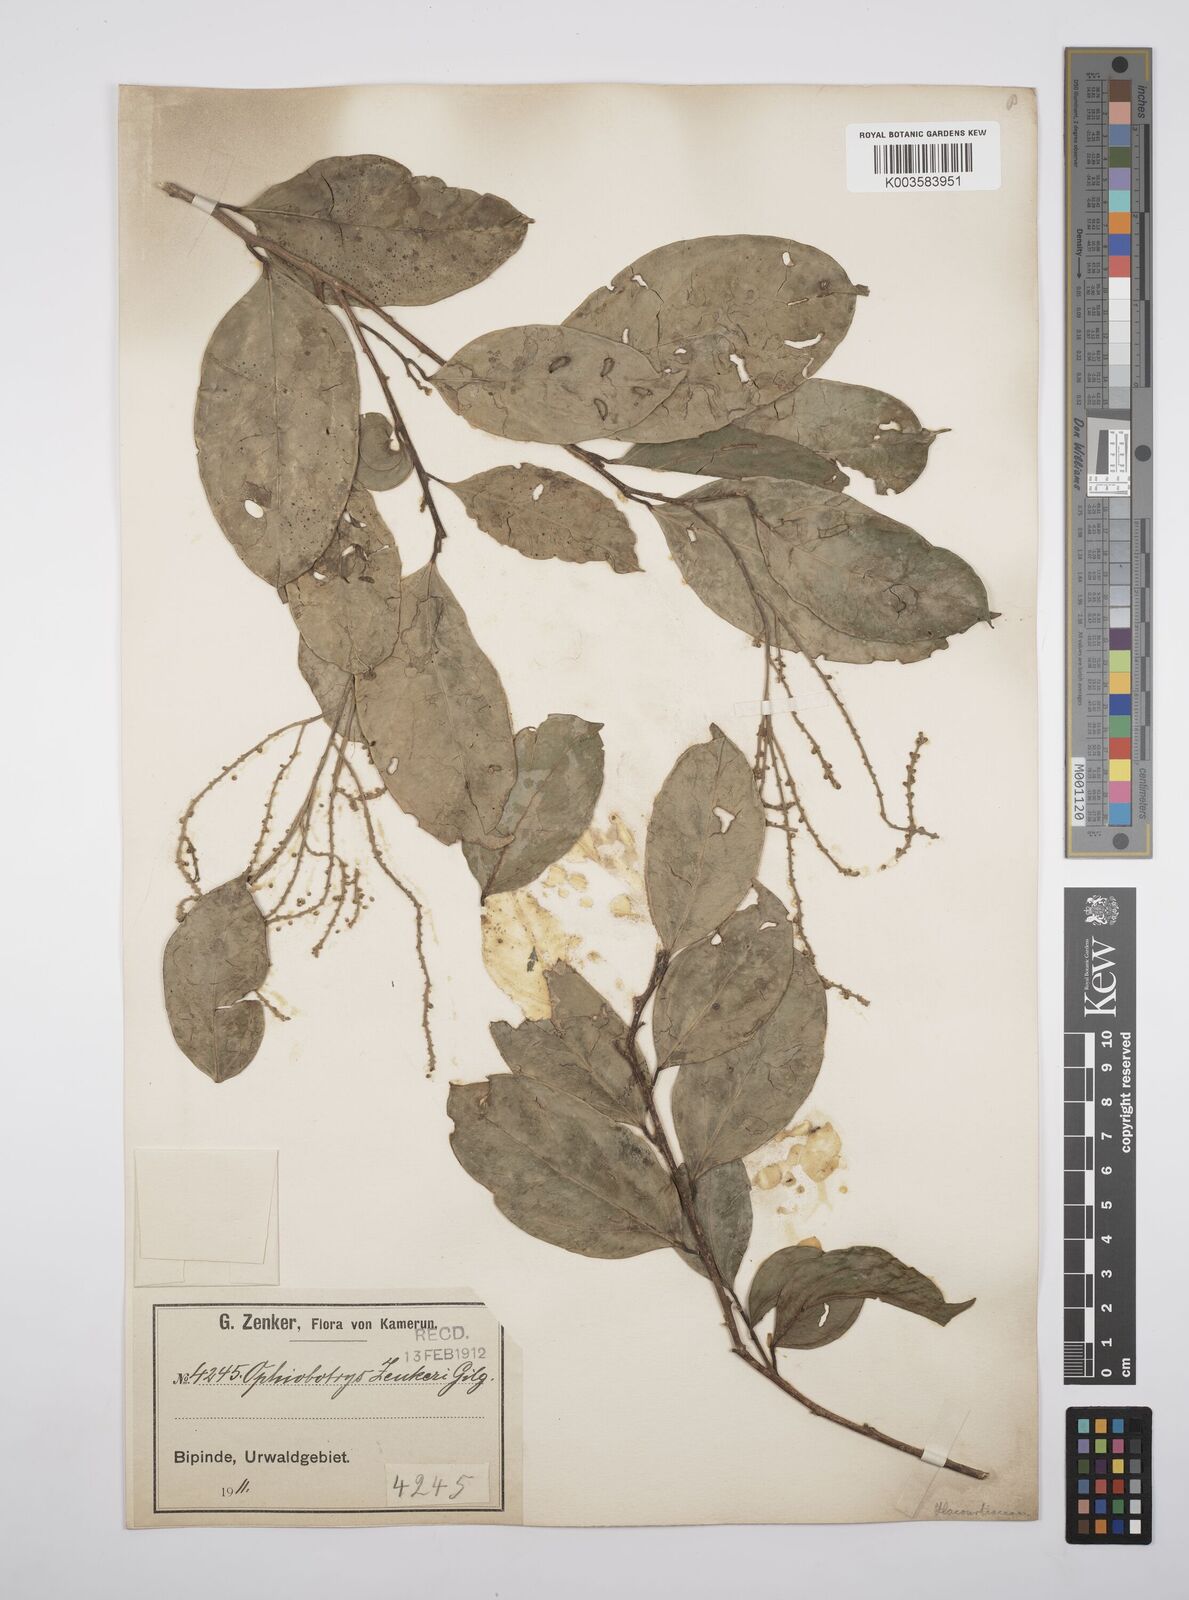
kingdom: Plantae
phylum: Tracheophyta
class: Magnoliopsida
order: Malpighiales
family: Salicaceae
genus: Ophiobotrys
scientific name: Ophiobotrys zenkeri
